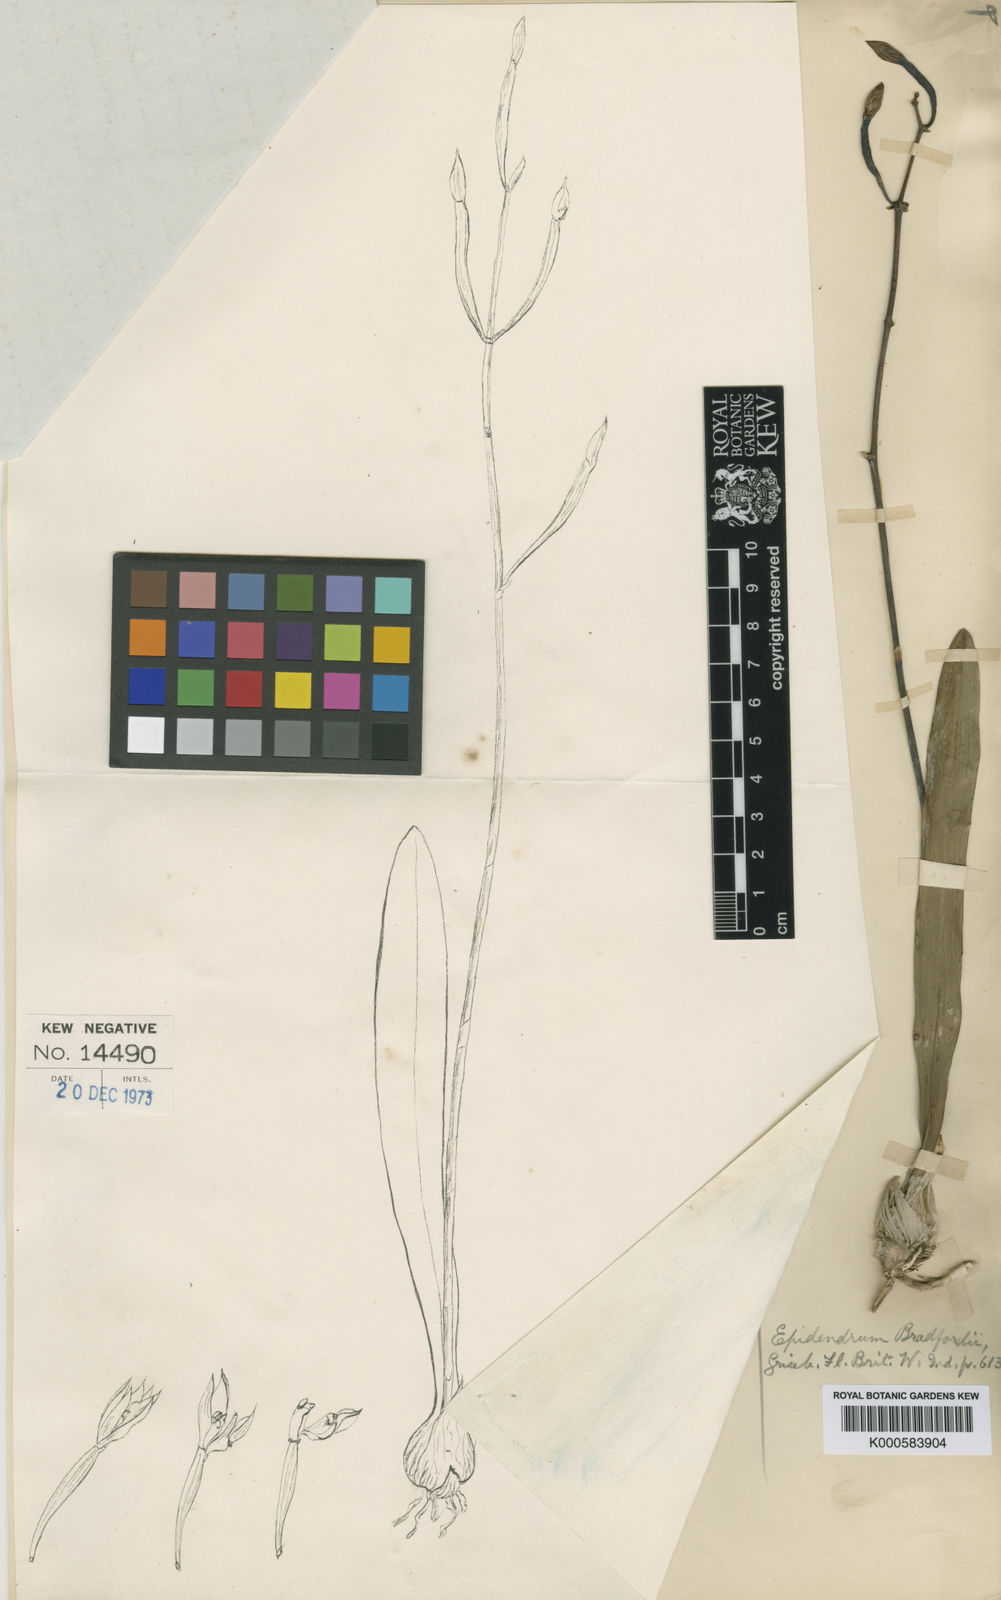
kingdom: Plantae
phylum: Tracheophyta
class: Liliopsida
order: Asparagales
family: Orchidaceae
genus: Encyclia
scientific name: Encyclia
